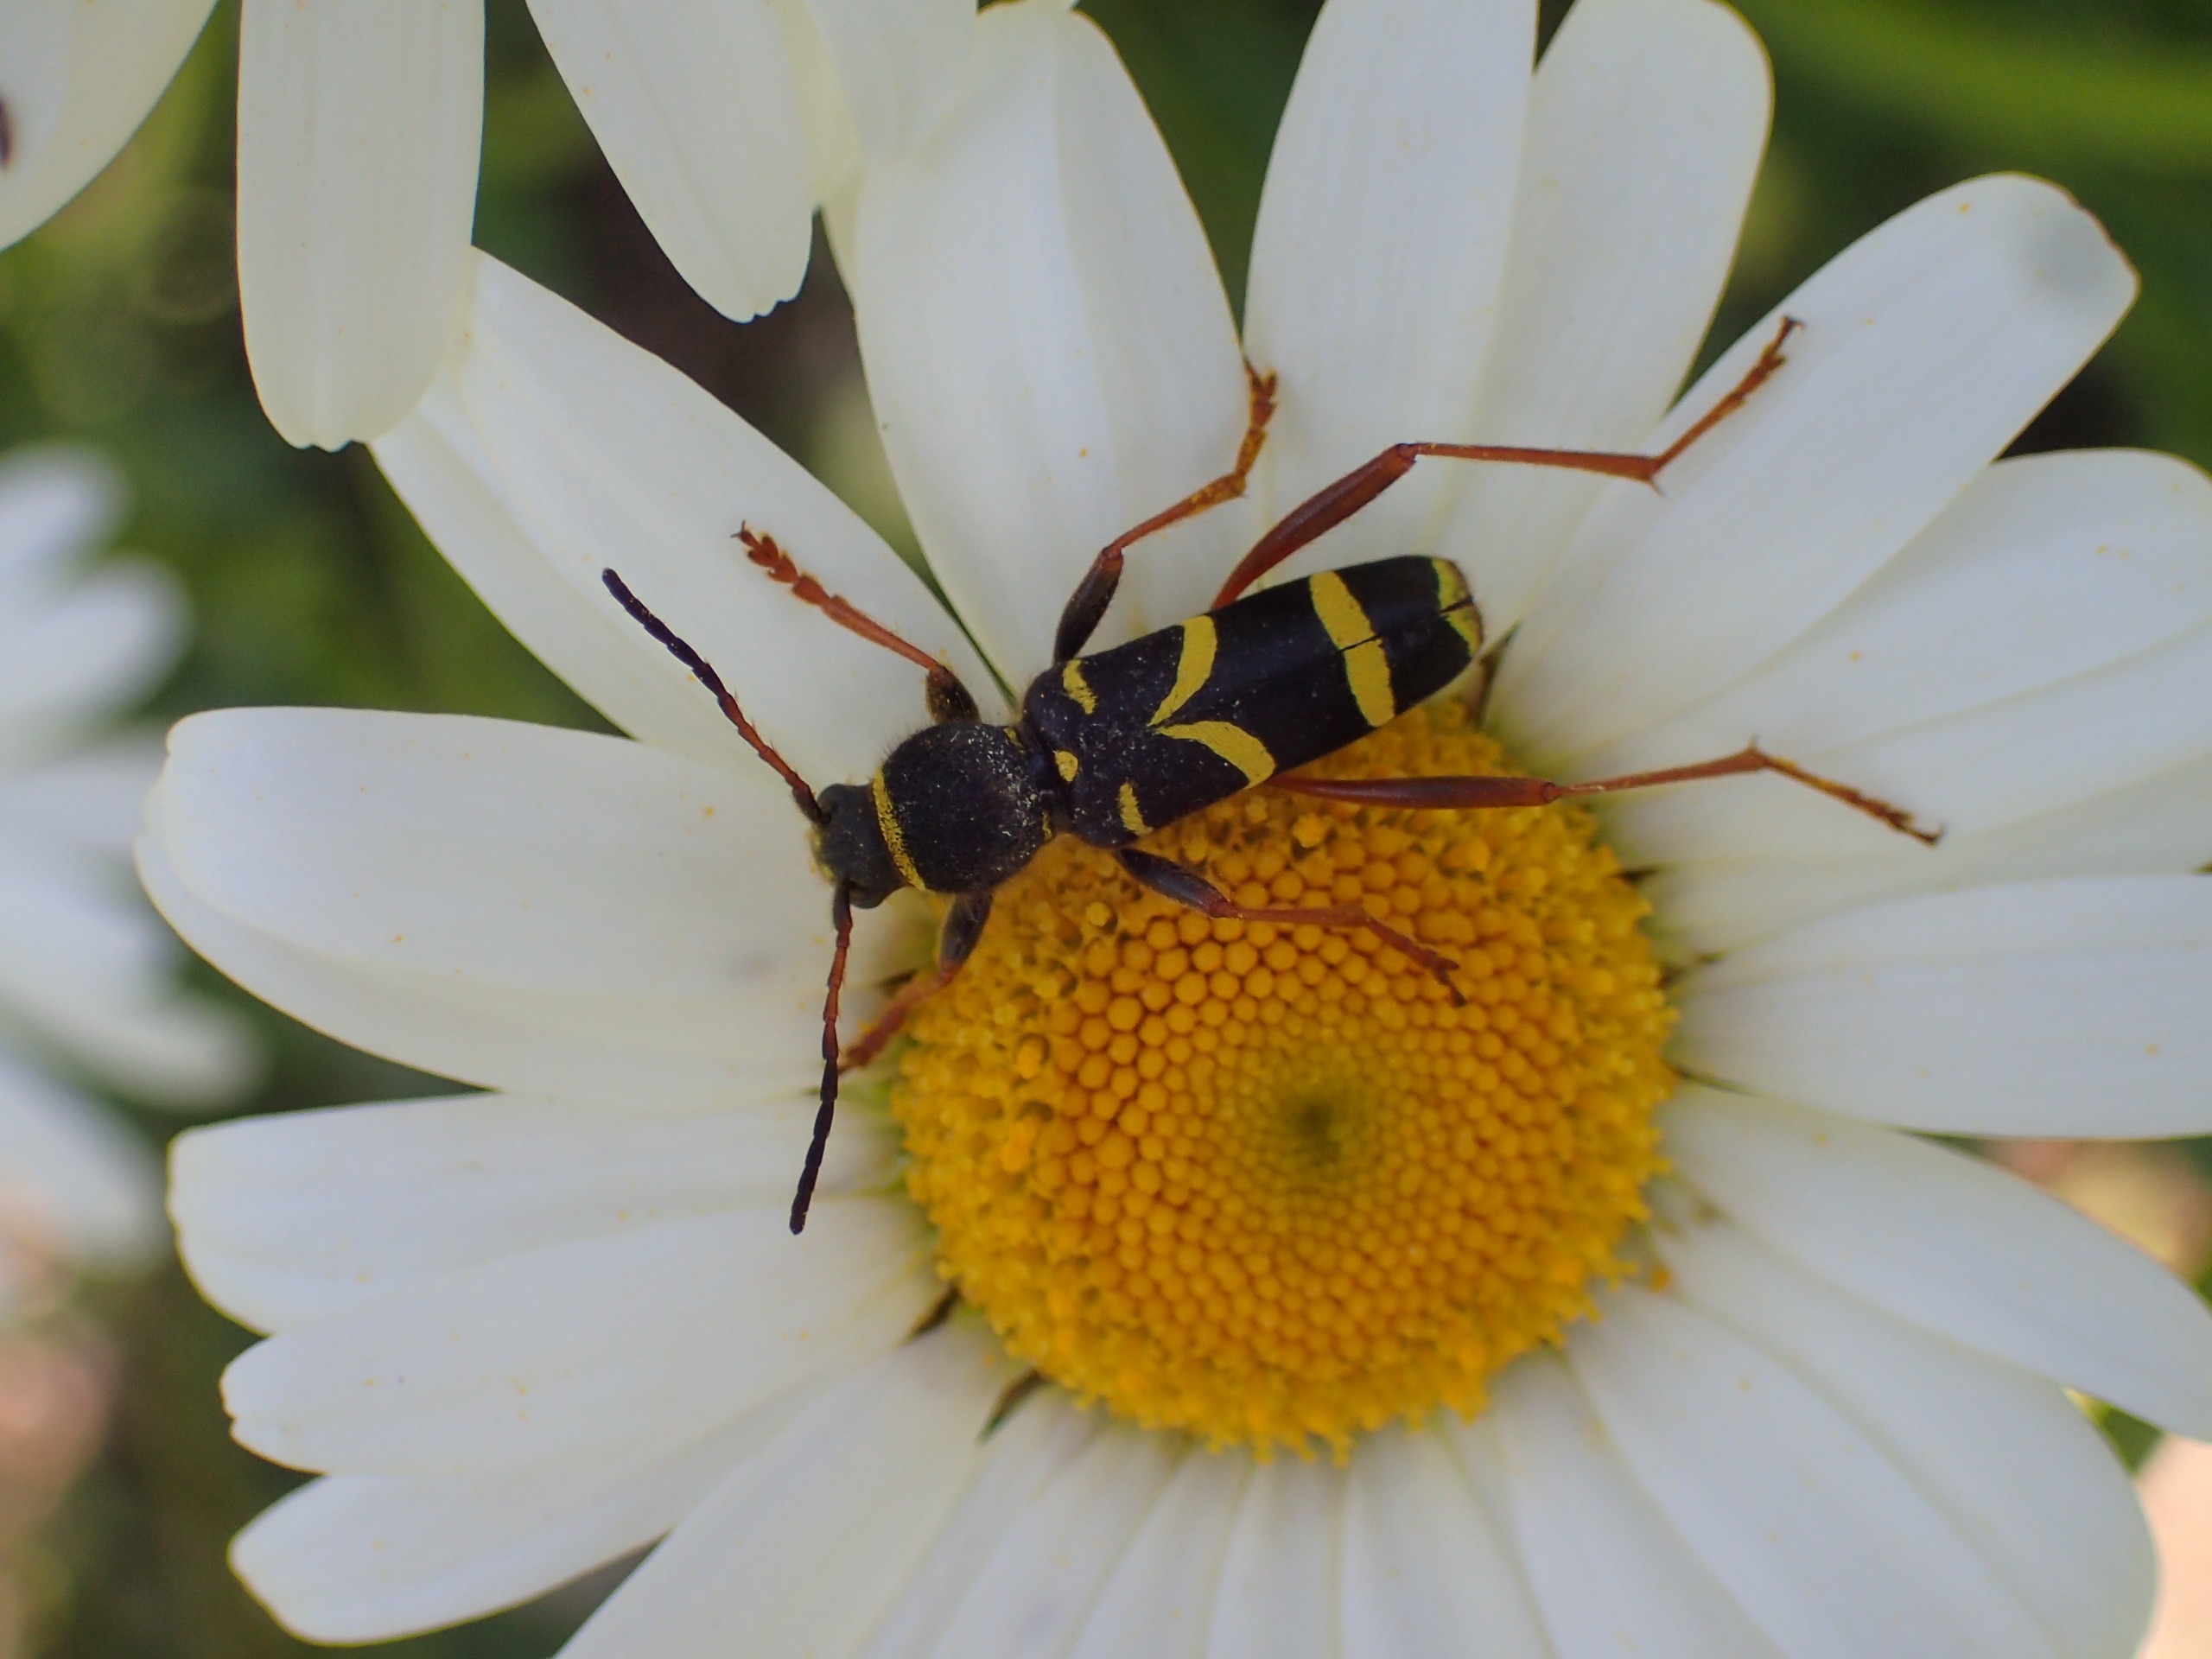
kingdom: Animalia
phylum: Arthropoda
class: Insecta
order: Coleoptera
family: Cerambycidae
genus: Clytus
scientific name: Clytus arietis
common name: Lille hvepsebuk
